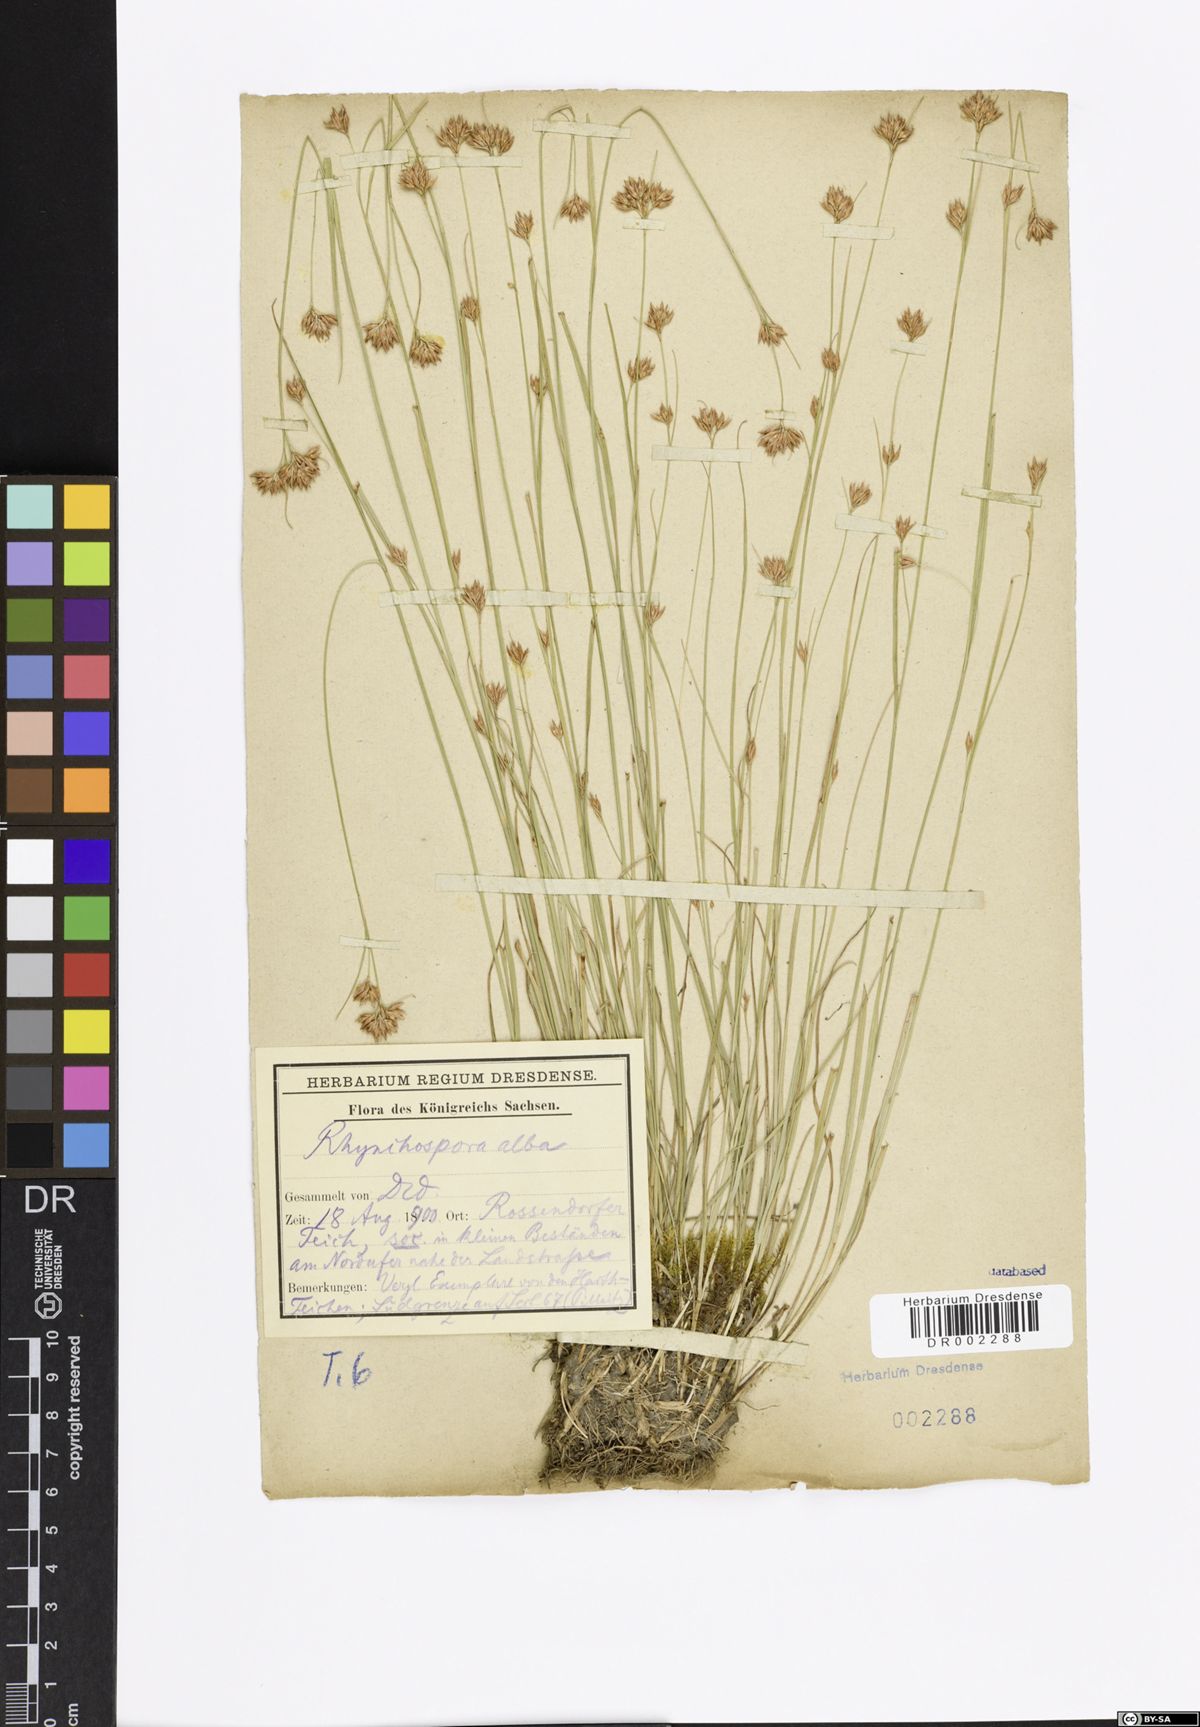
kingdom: Plantae
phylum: Tracheophyta
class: Liliopsida
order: Poales
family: Cyperaceae
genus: Rhynchospora
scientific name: Rhynchospora alba
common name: White beak-sedge
